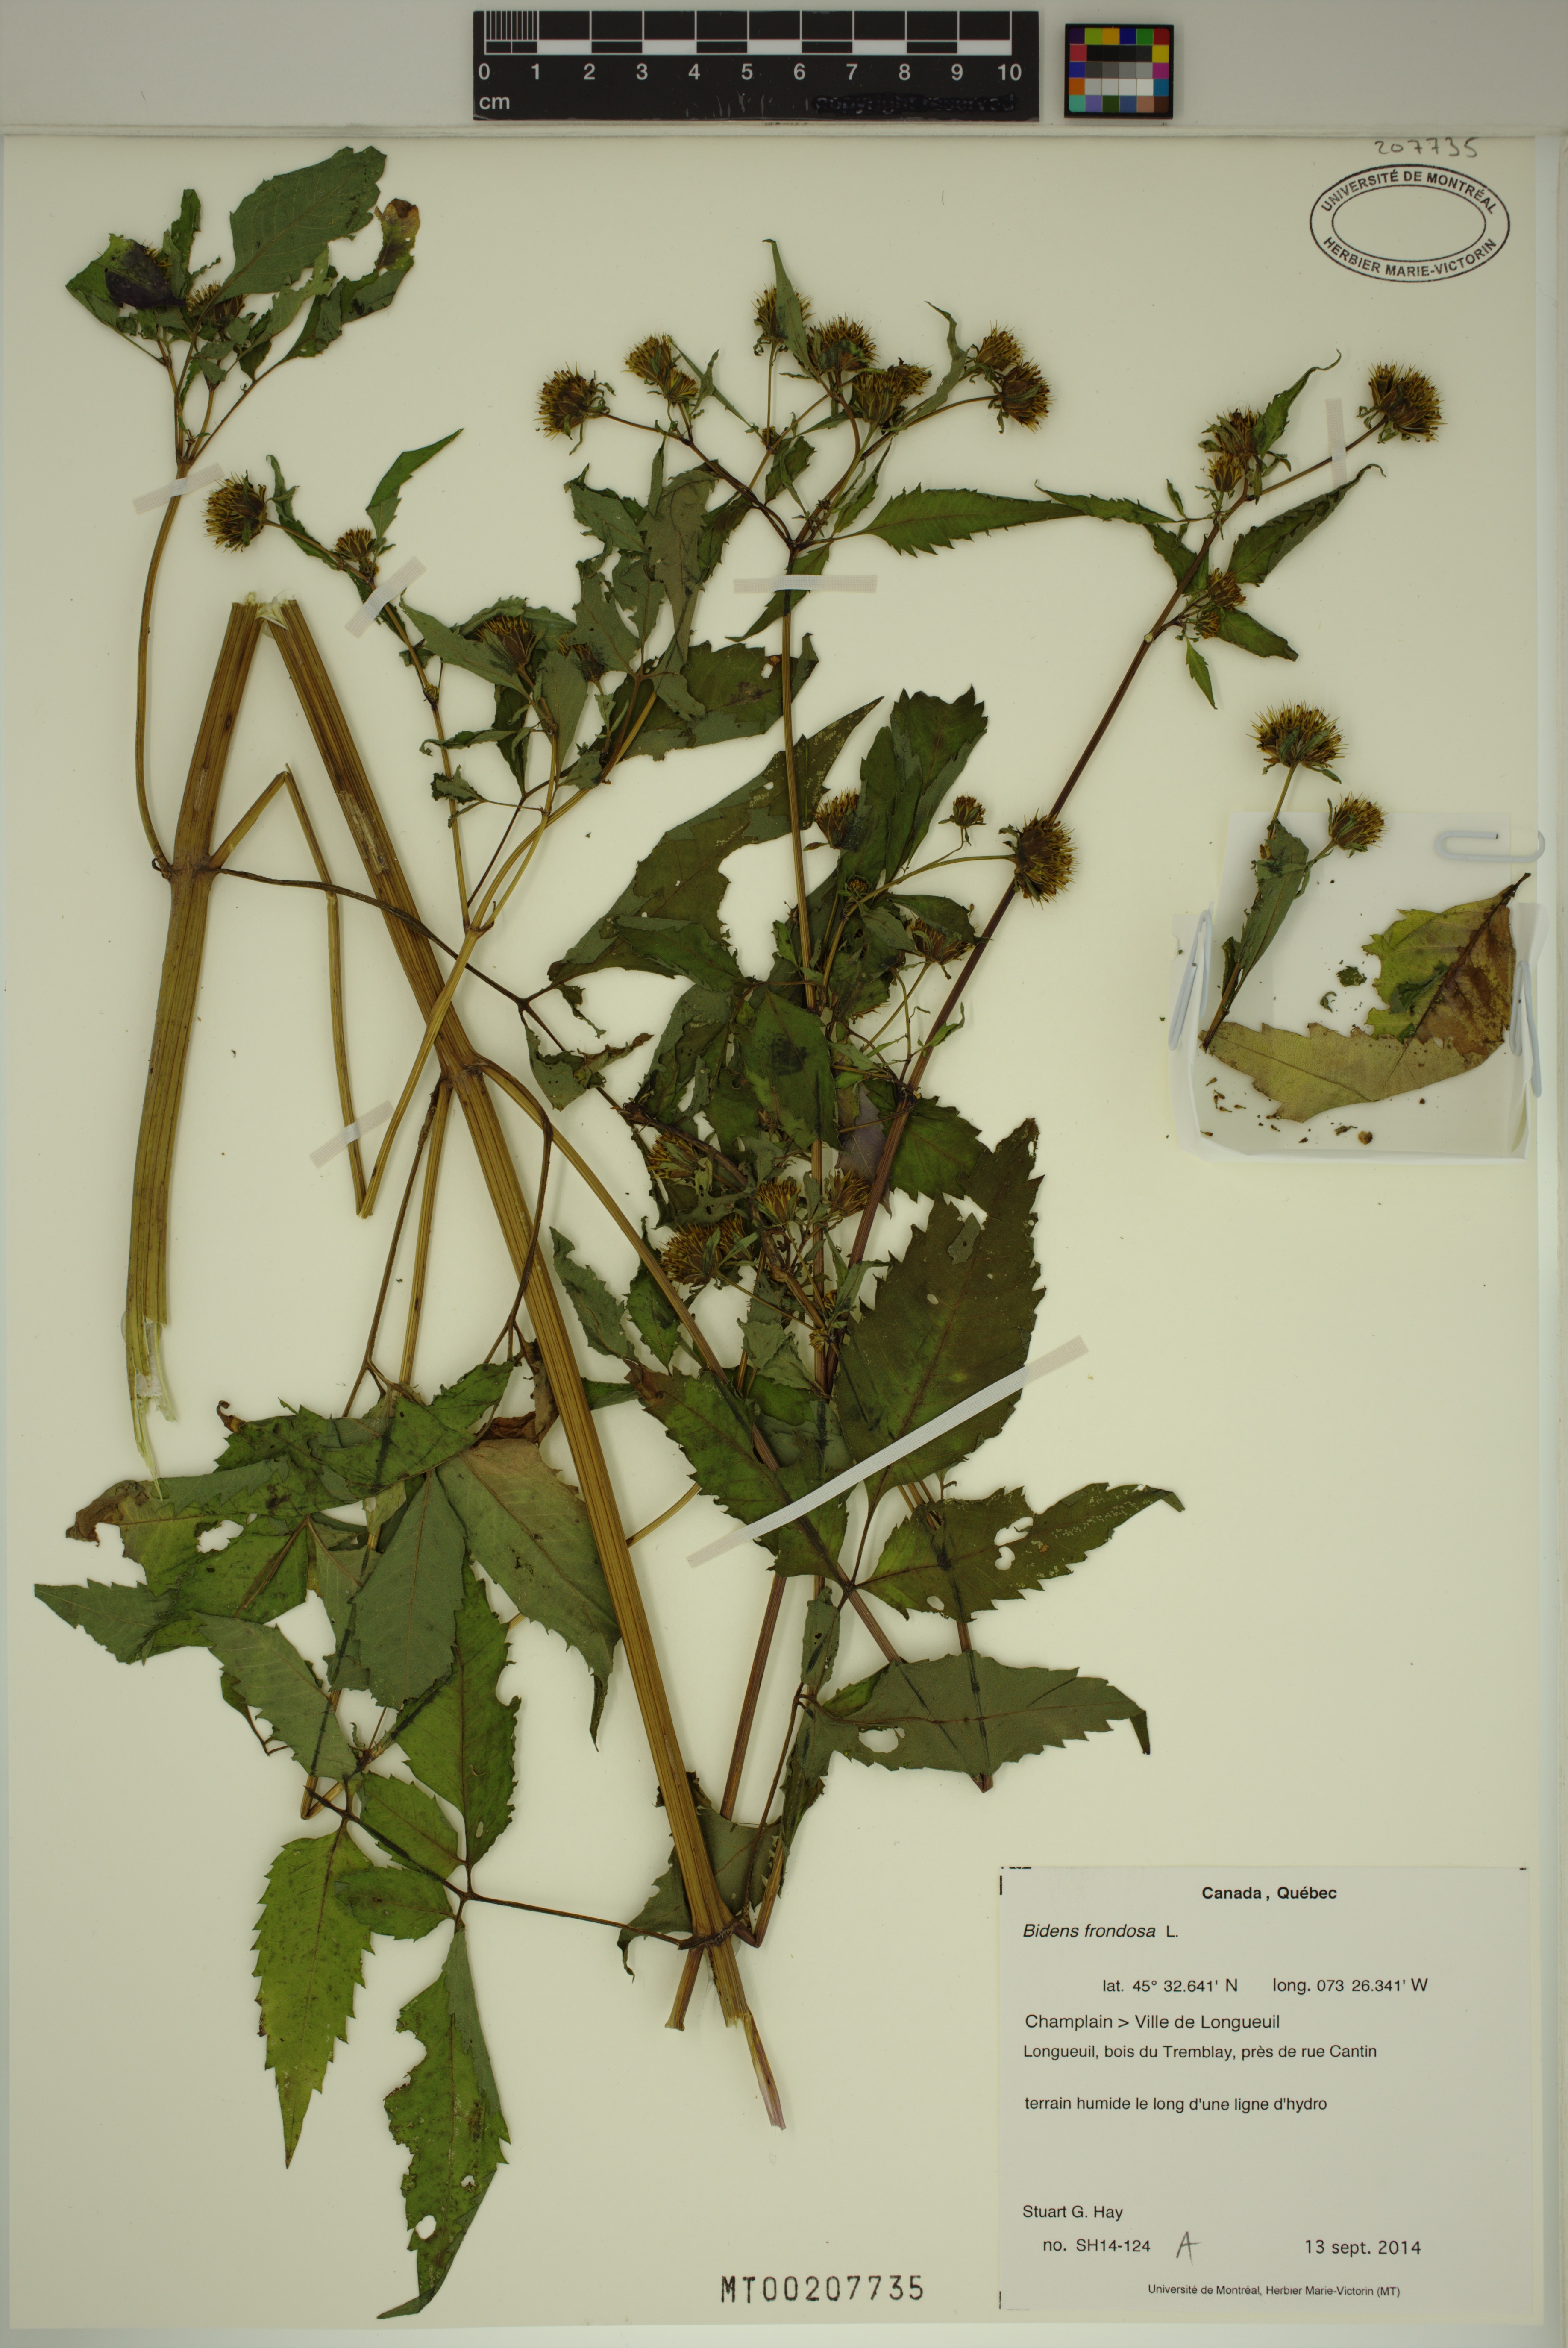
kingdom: Plantae
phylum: Tracheophyta
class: Magnoliopsida
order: Asterales
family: Asteraceae
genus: Bidens
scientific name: Bidens frondosa
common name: Beggarticks
